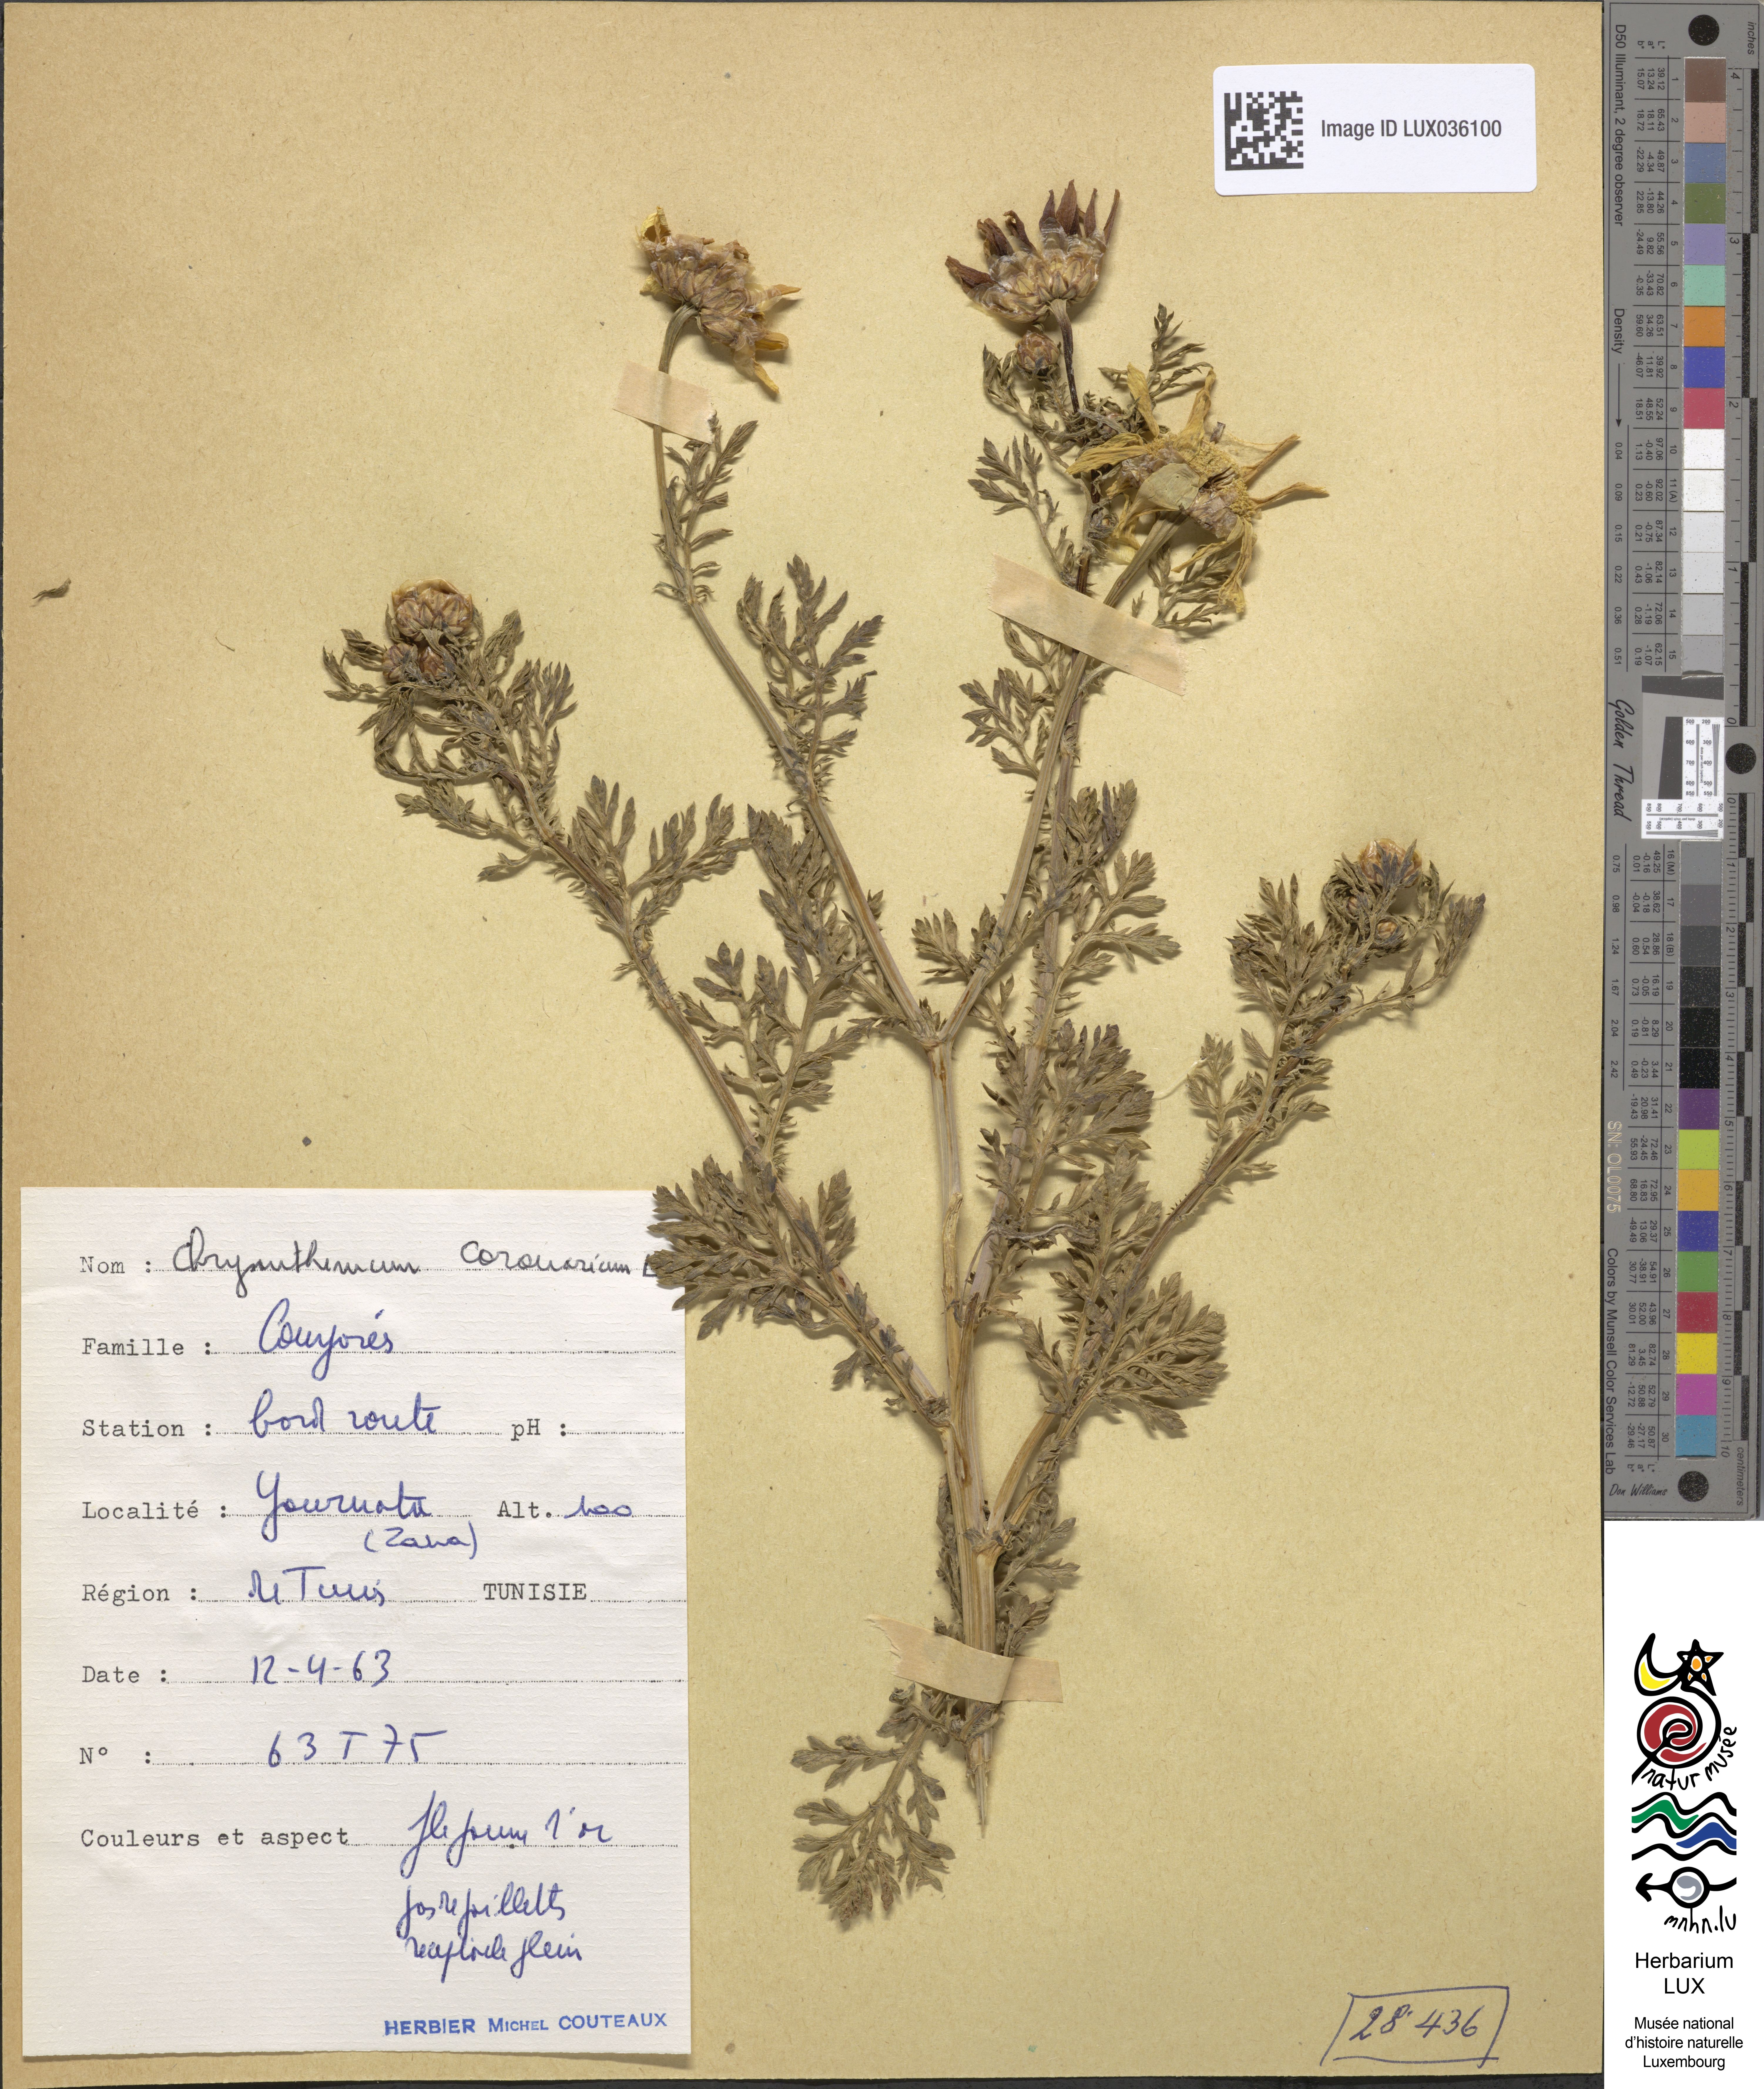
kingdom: Plantae
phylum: Tracheophyta
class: Magnoliopsida
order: Asterales
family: Asteraceae
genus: Glebionis
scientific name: Glebionis coronaria
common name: Crowndaisy
